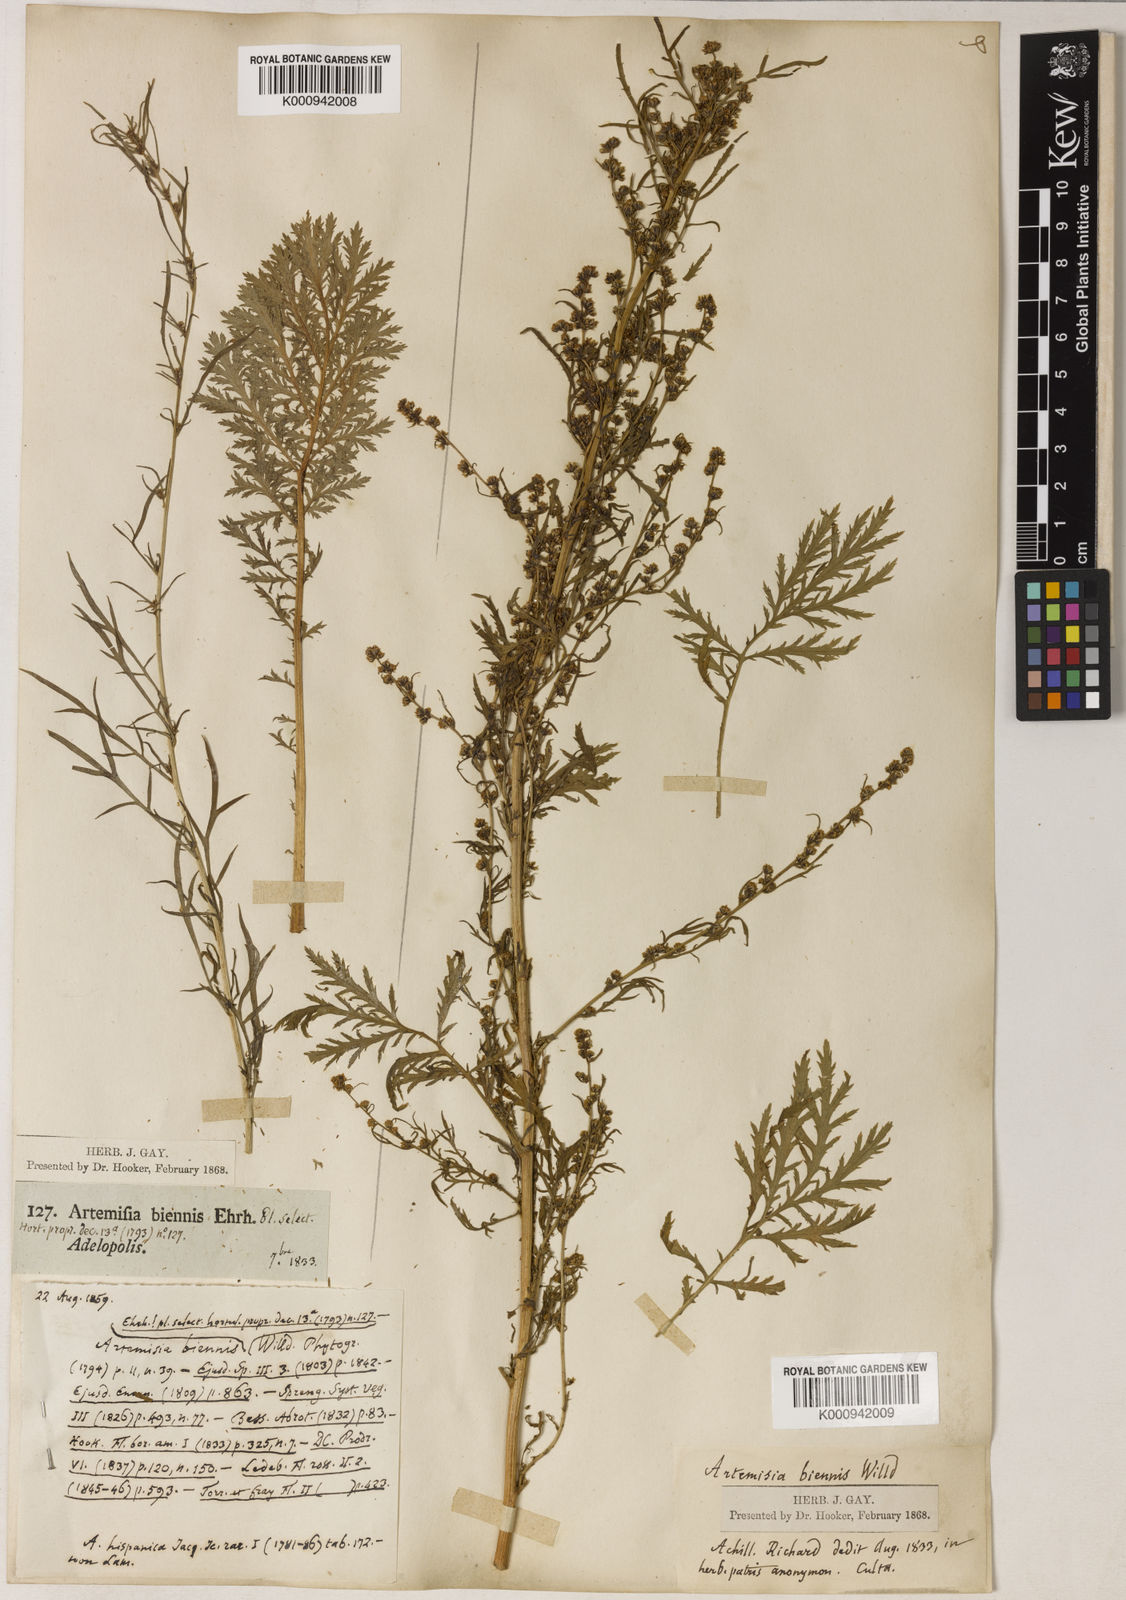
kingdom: Plantae
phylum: Tracheophyta
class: Magnoliopsida
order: Asterales
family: Asteraceae
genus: Artemisia
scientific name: Artemisia biennis
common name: Biennial wormwood
